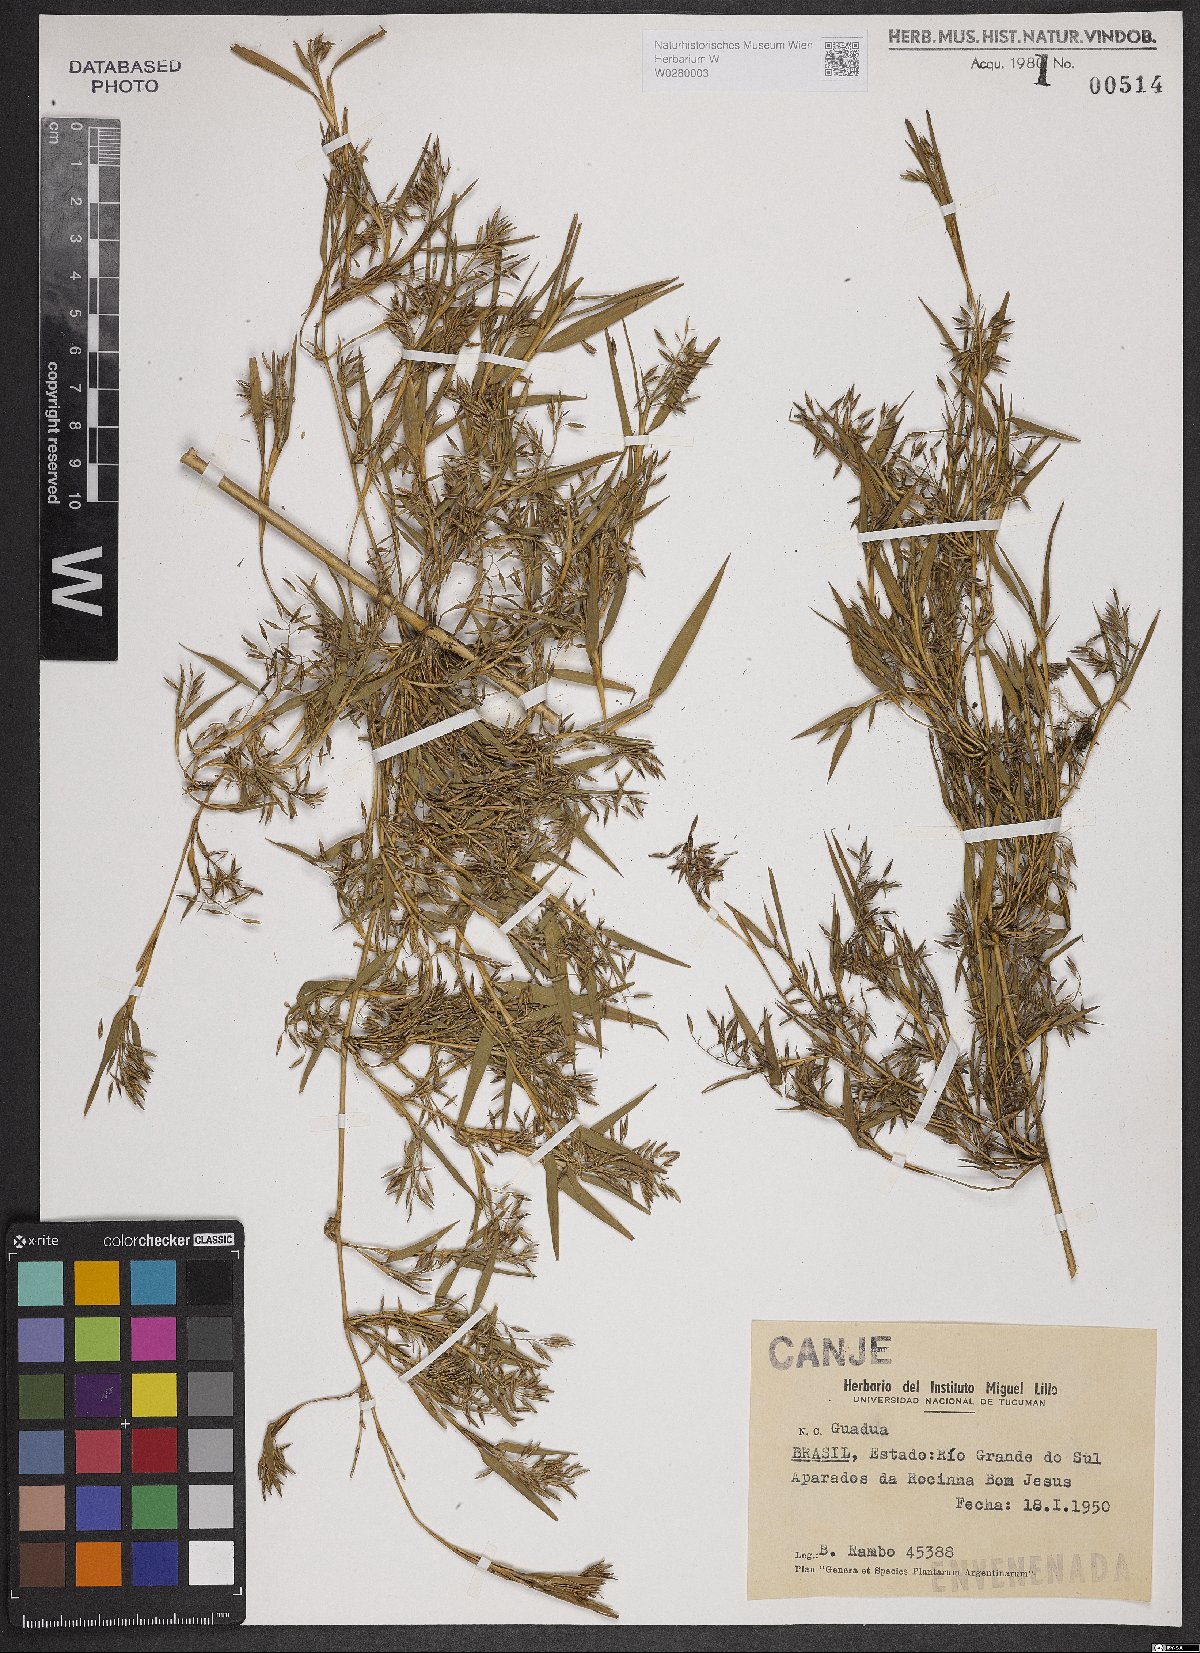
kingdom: Plantae
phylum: Tracheophyta
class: Liliopsida
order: Poales
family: Poaceae
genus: Bambusa
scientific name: Bambusa
